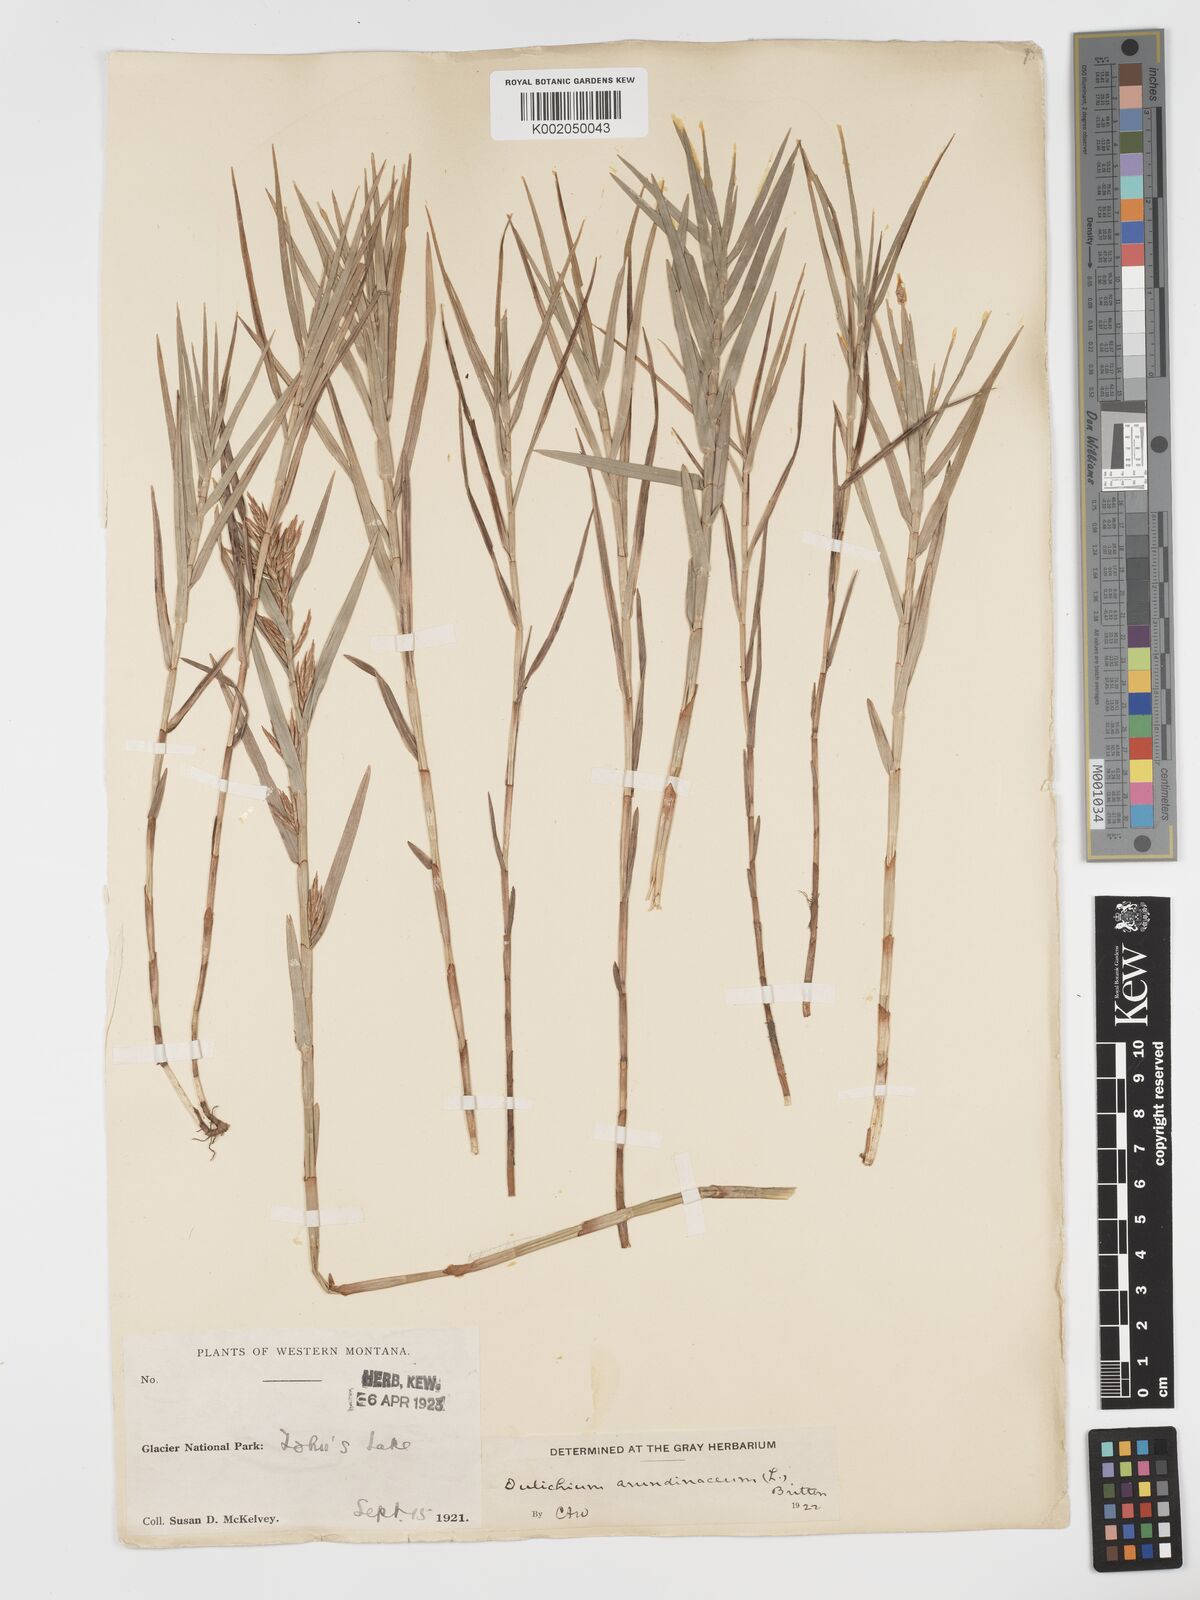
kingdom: Plantae
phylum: Tracheophyta
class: Liliopsida
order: Poales
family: Cyperaceae
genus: Dulichium
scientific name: Dulichium arundinaceum
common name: Three-way sedge
